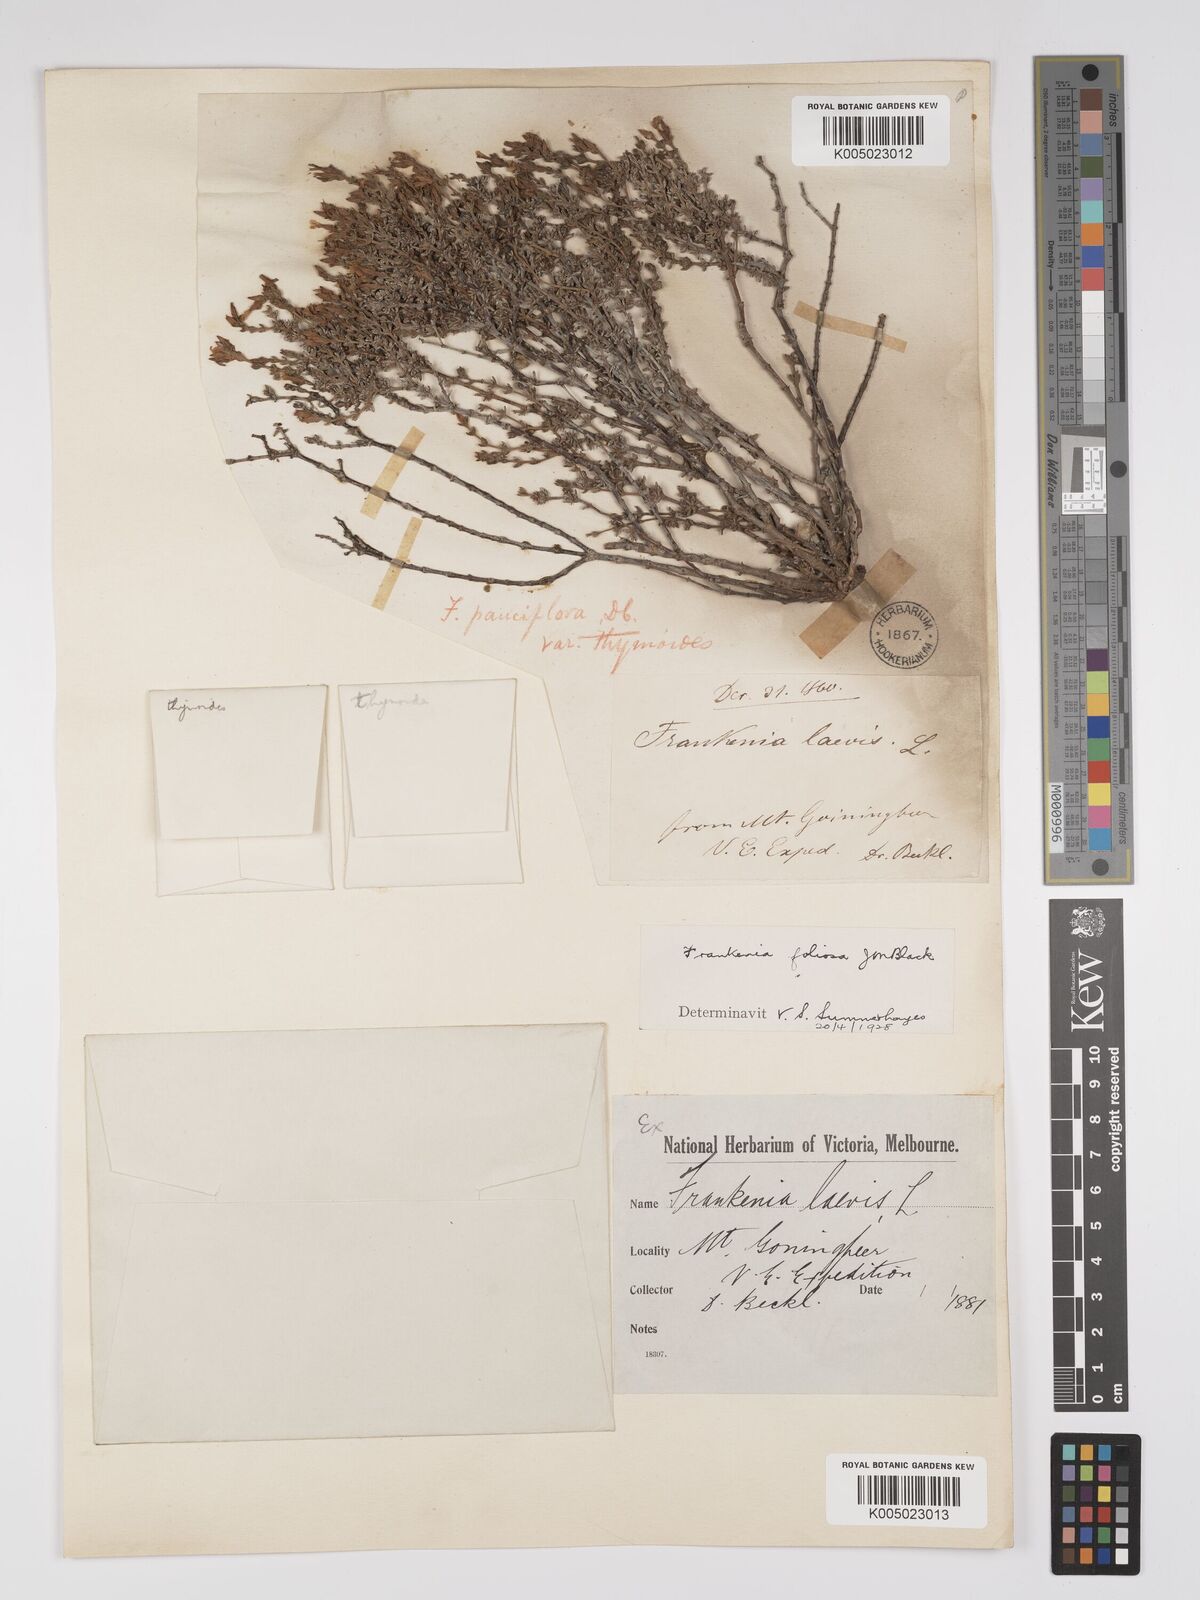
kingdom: Plantae
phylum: Tracheophyta
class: Magnoliopsida
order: Caryophyllales
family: Frankeniaceae
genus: Frankenia
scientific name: Frankenia foliosa
